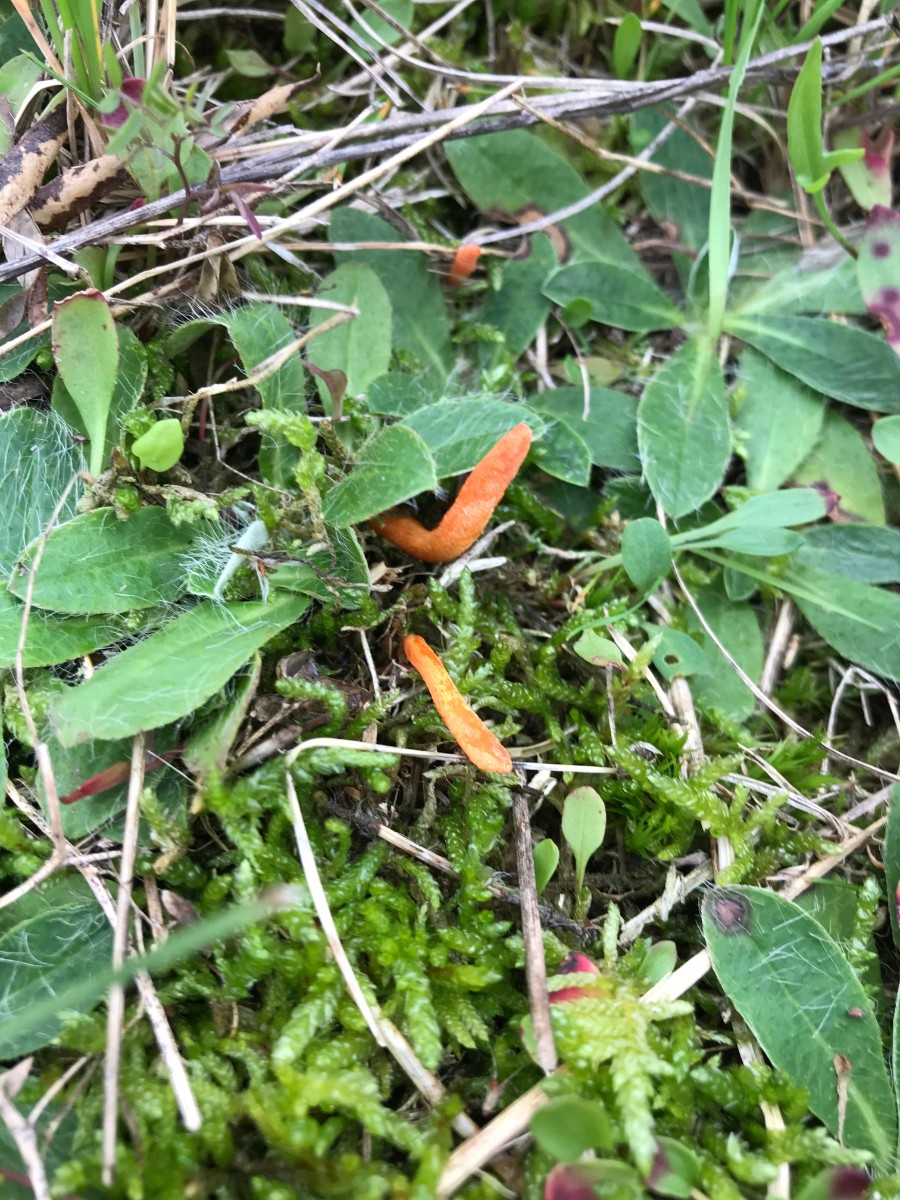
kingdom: Fungi
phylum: Ascomycota
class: Sordariomycetes
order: Hypocreales
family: Cordycipitaceae
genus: Cordyceps
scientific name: Cordyceps militaris
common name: puppe-snyltekølle
